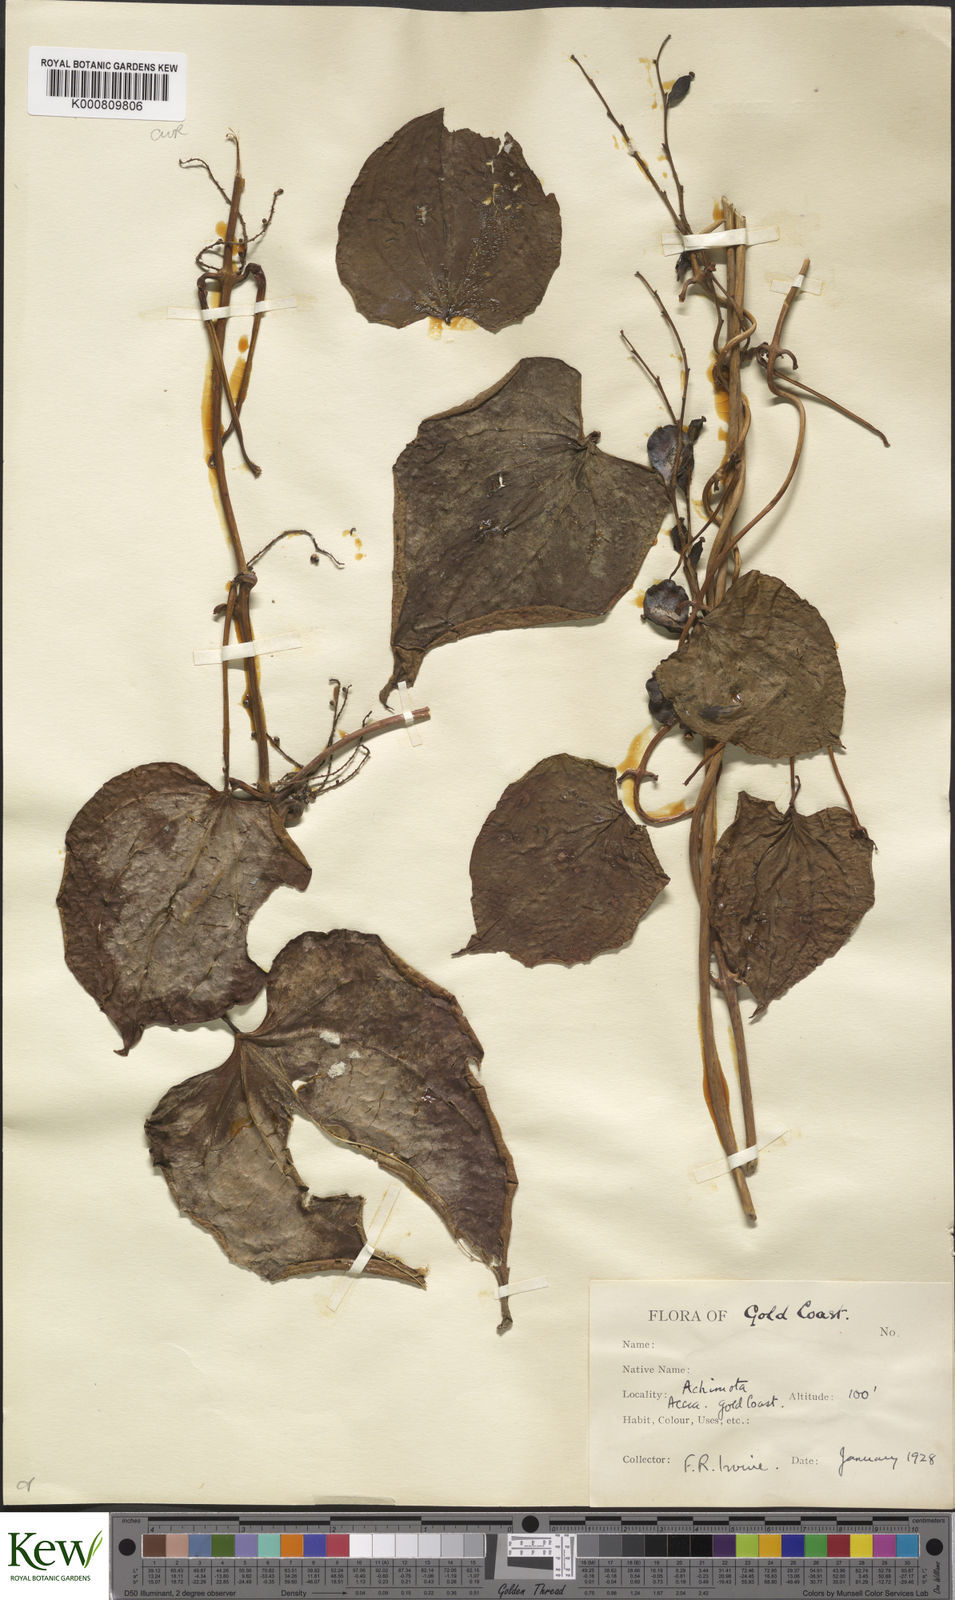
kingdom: Plantae
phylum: Tracheophyta
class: Liliopsida
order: Dioscoreales
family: Dioscoreaceae
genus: Dioscorea
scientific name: Dioscorea cayenensis
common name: Attoto yam
